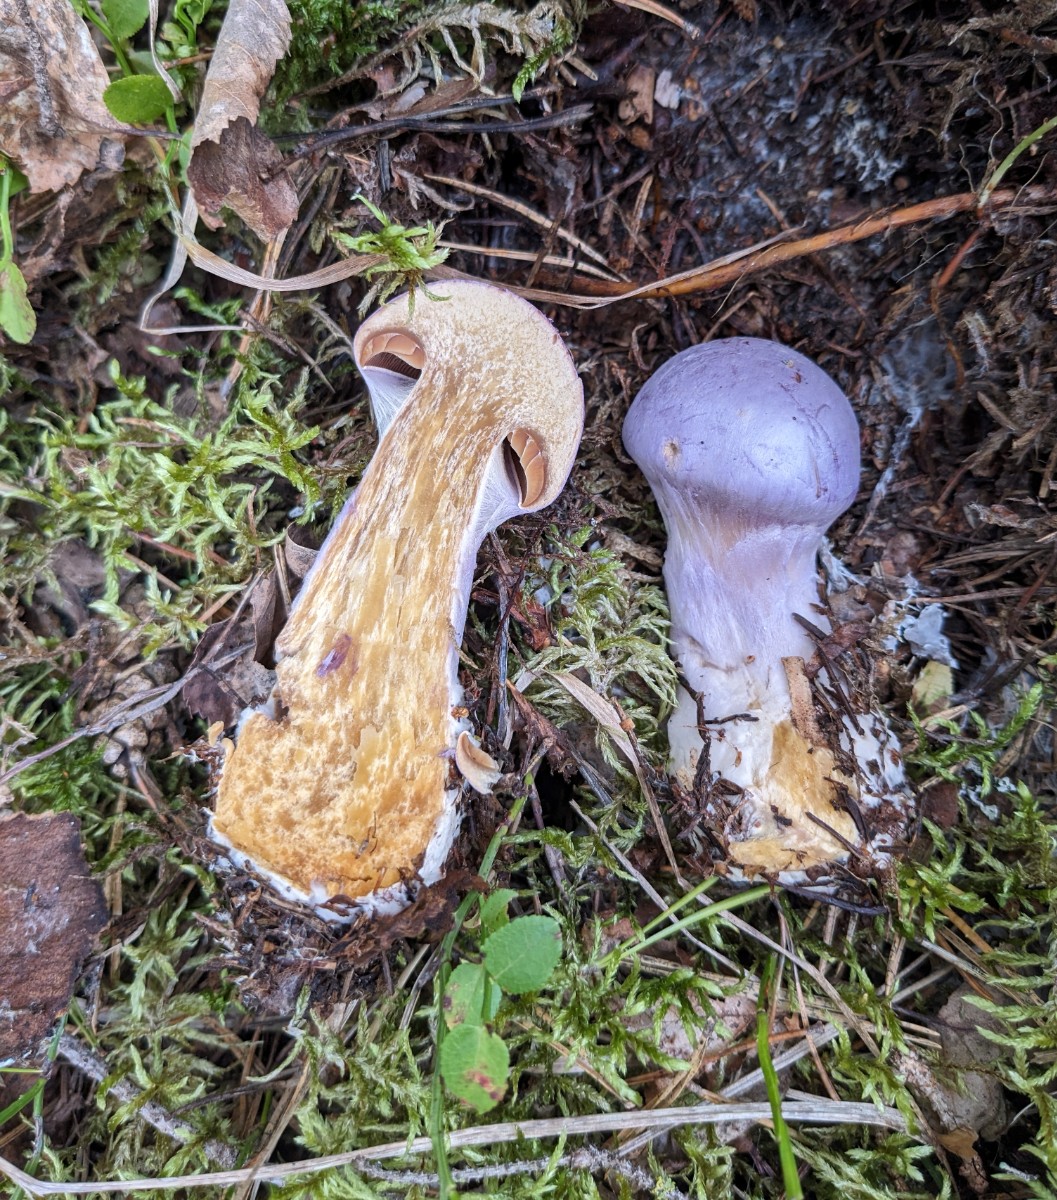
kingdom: Fungi
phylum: Basidiomycota
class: Agaricomycetes
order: Agaricales
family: Cortinariaceae
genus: Cortinarius
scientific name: Cortinarius traganus
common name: safrankødet slørhat
